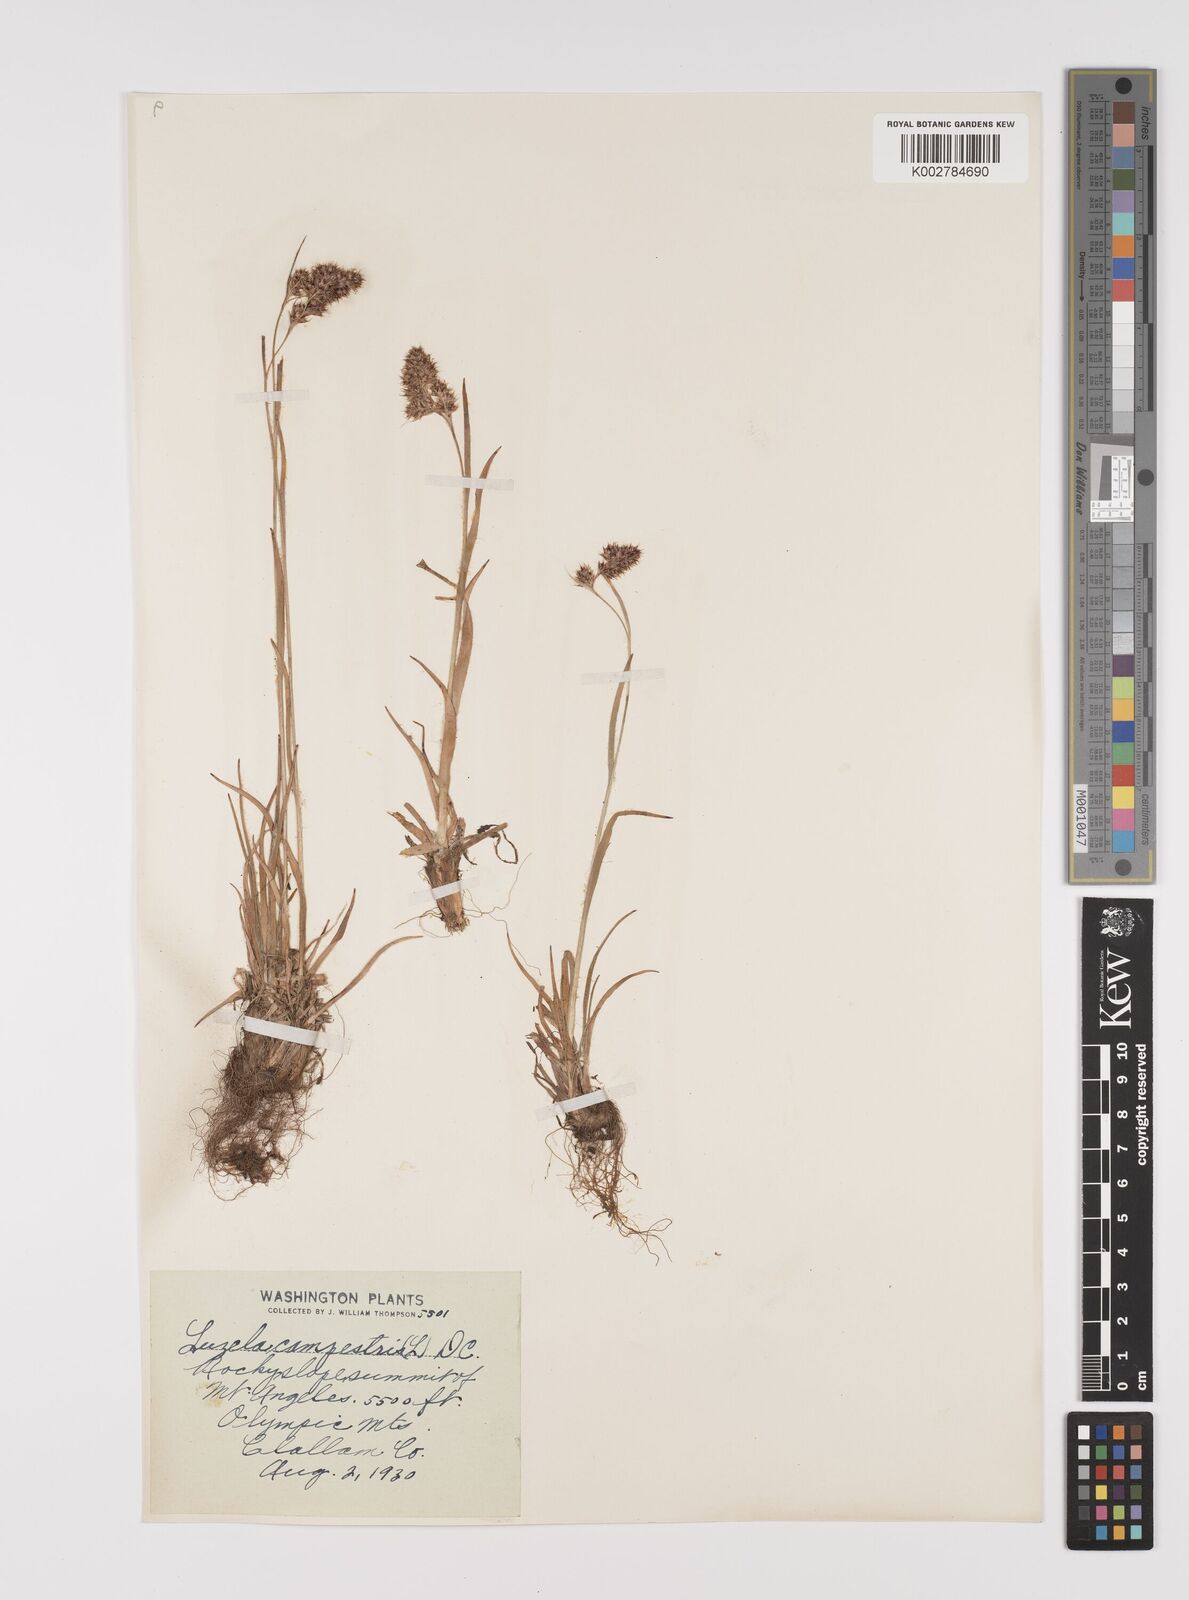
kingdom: Plantae
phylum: Tracheophyta
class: Liliopsida
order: Poales
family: Juncaceae
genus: Luzula
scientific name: Luzula campestris
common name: Field wood-rush
